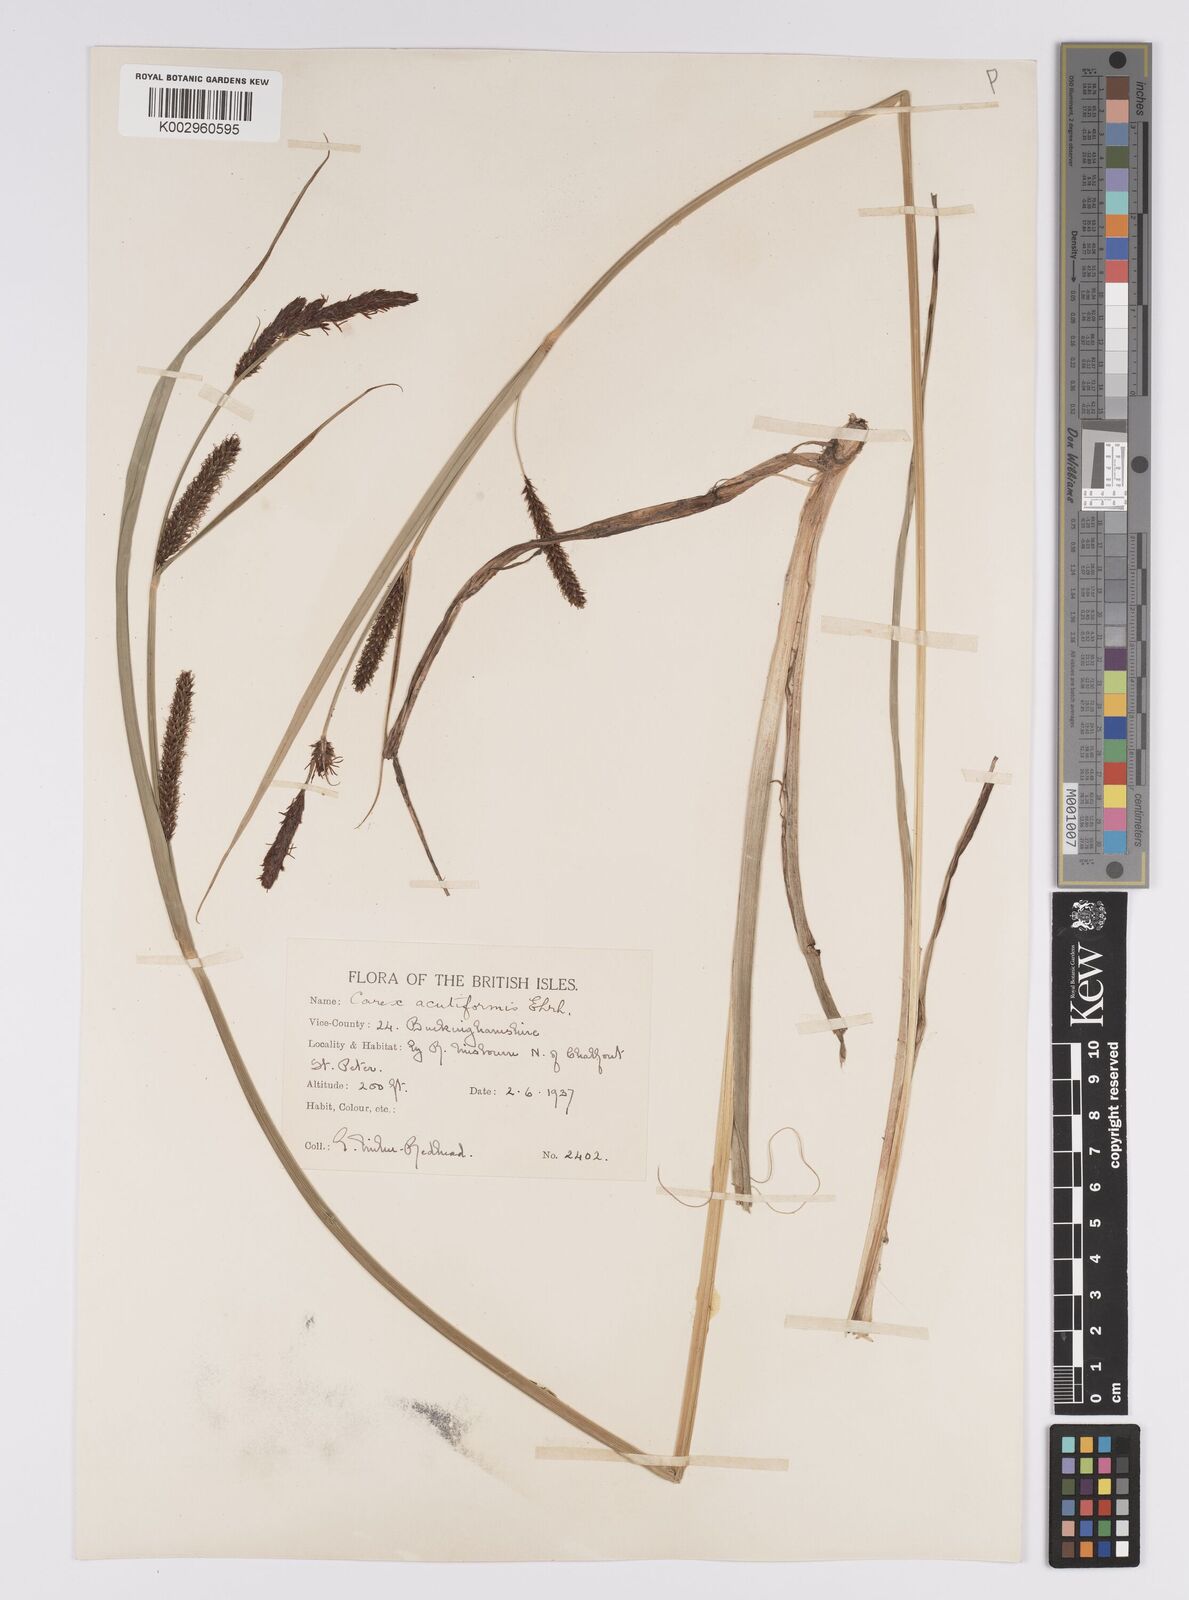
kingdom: Plantae
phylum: Tracheophyta
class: Liliopsida
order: Poales
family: Cyperaceae
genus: Carex
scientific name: Carex acutiformis
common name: Lesser pond-sedge
